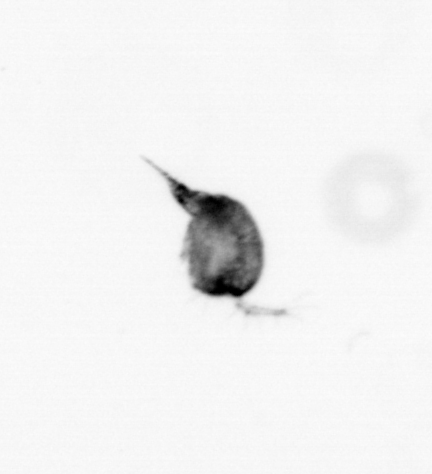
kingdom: Animalia
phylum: Arthropoda
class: Copepoda
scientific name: Copepoda
